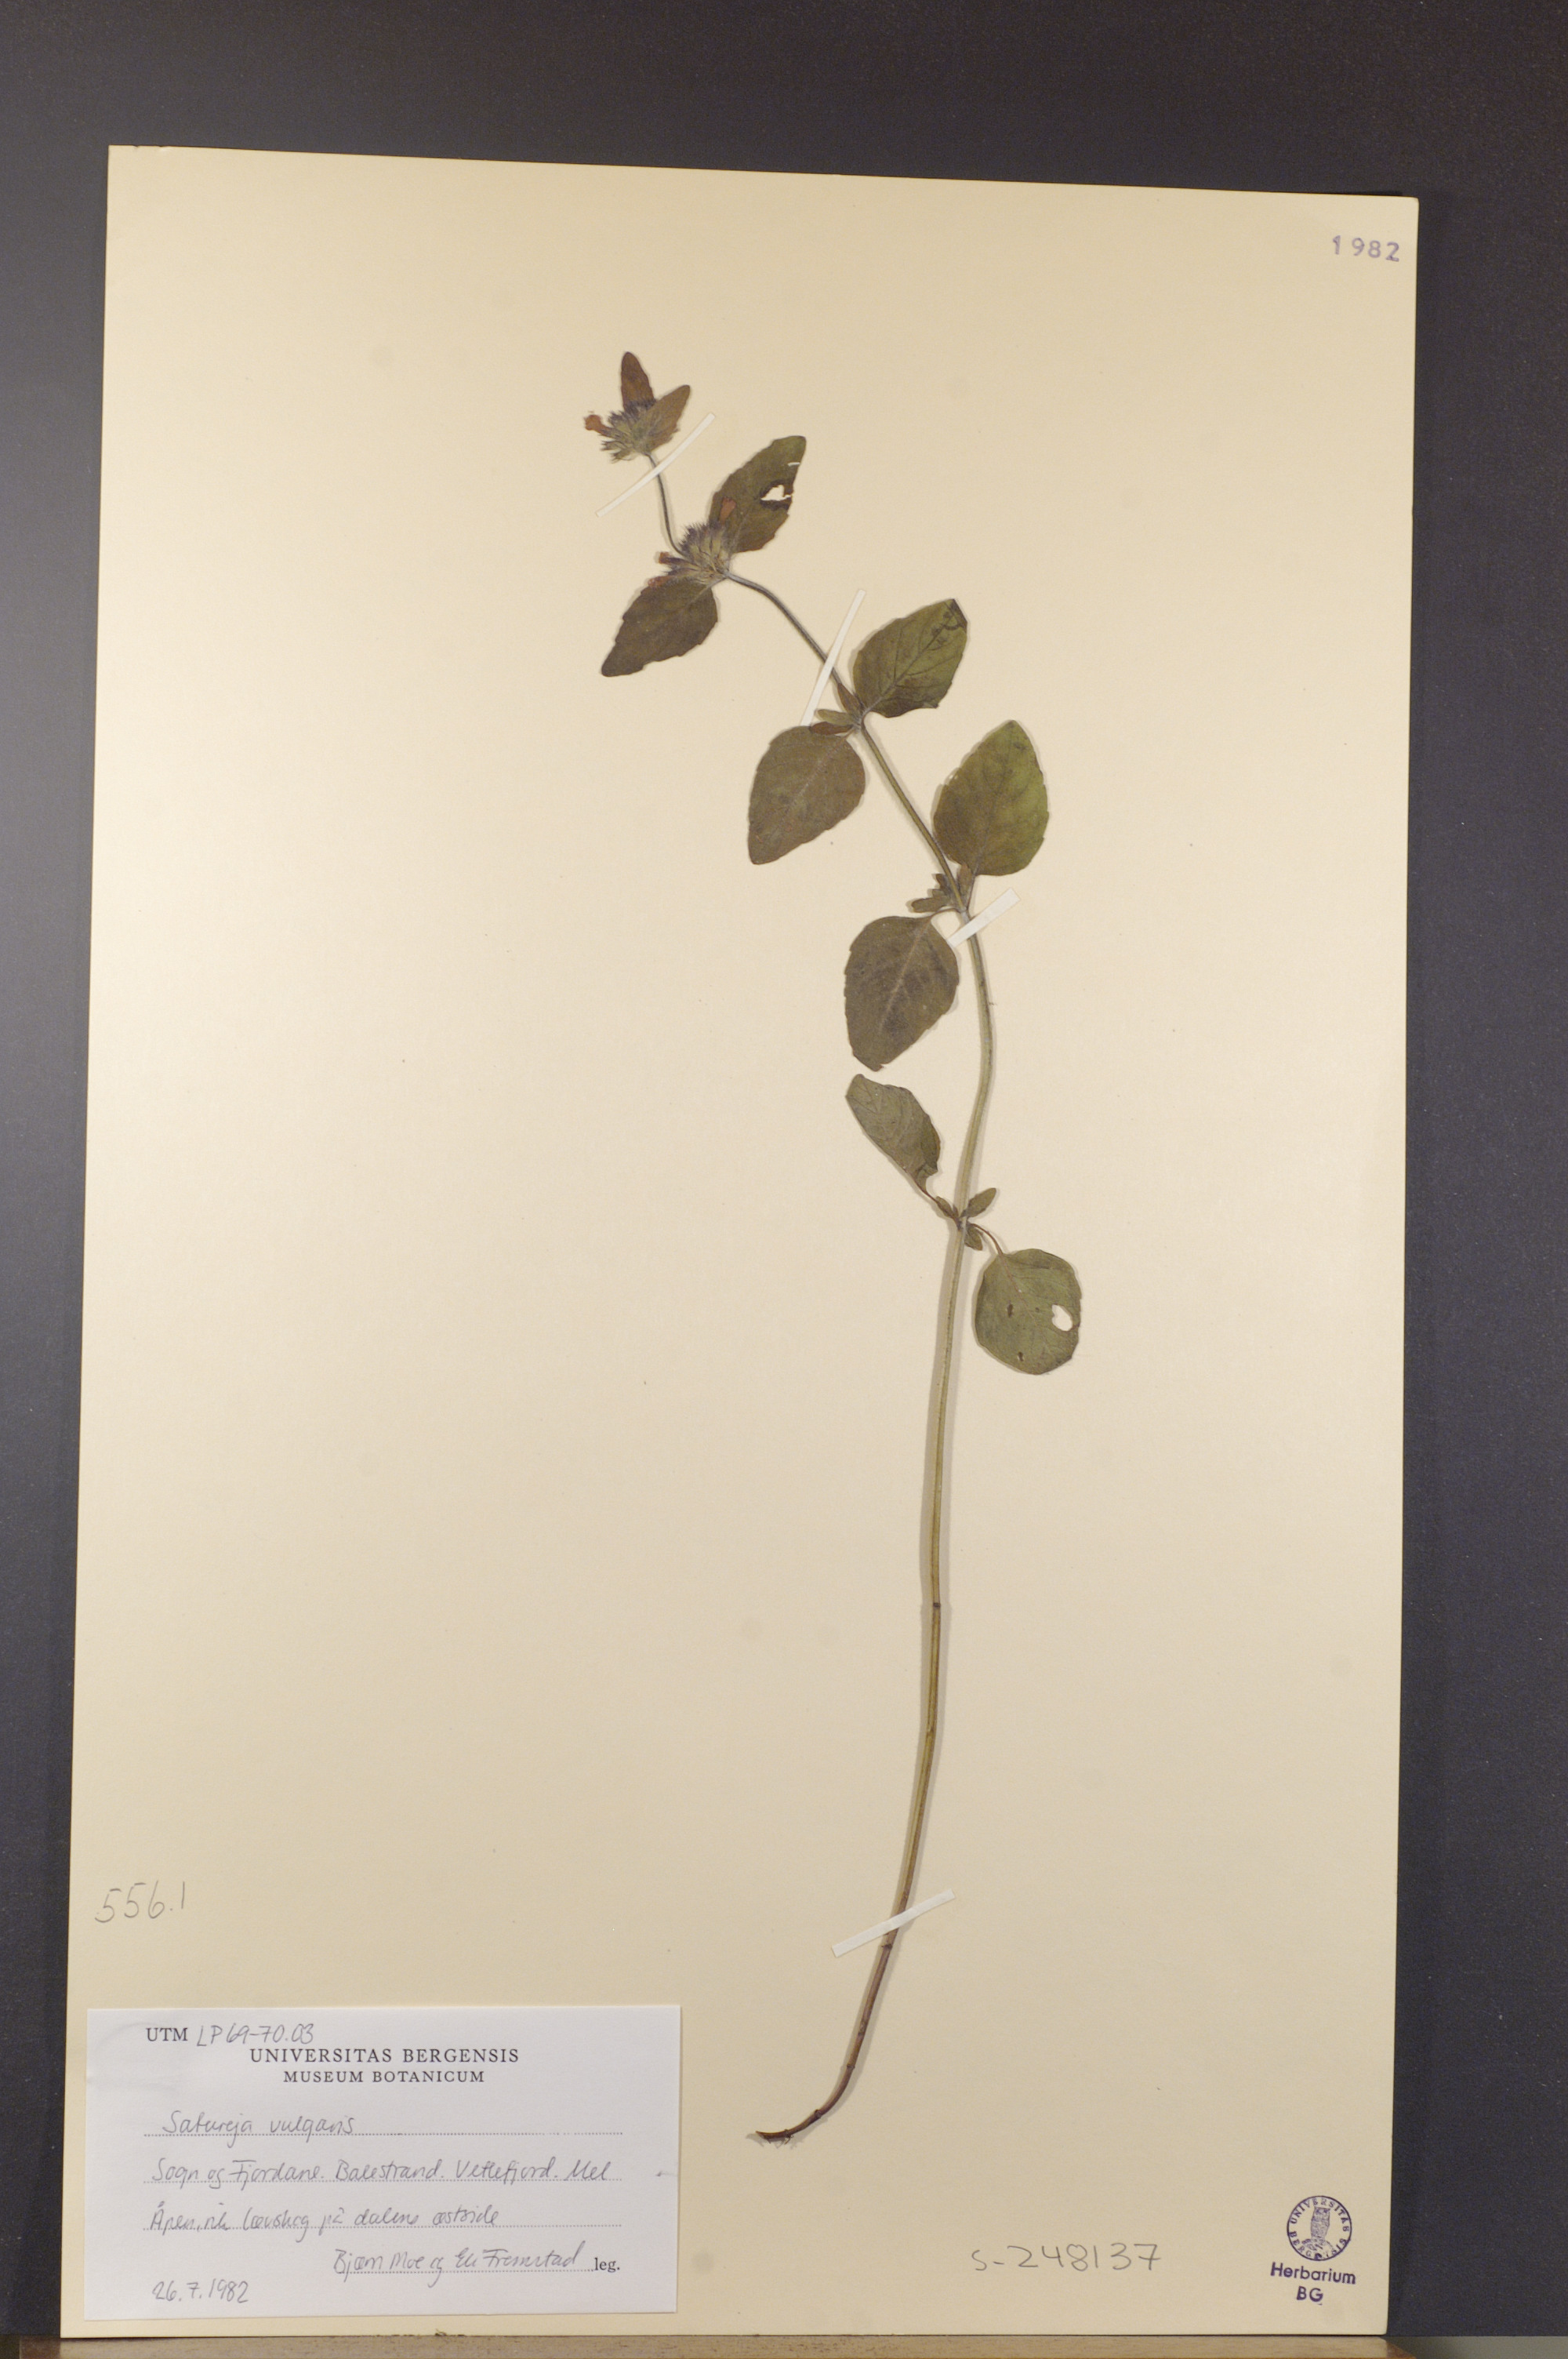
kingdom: Plantae
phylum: Tracheophyta
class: Magnoliopsida
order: Lamiales
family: Lamiaceae
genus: Clinopodium
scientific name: Clinopodium vulgare
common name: Wild basil
